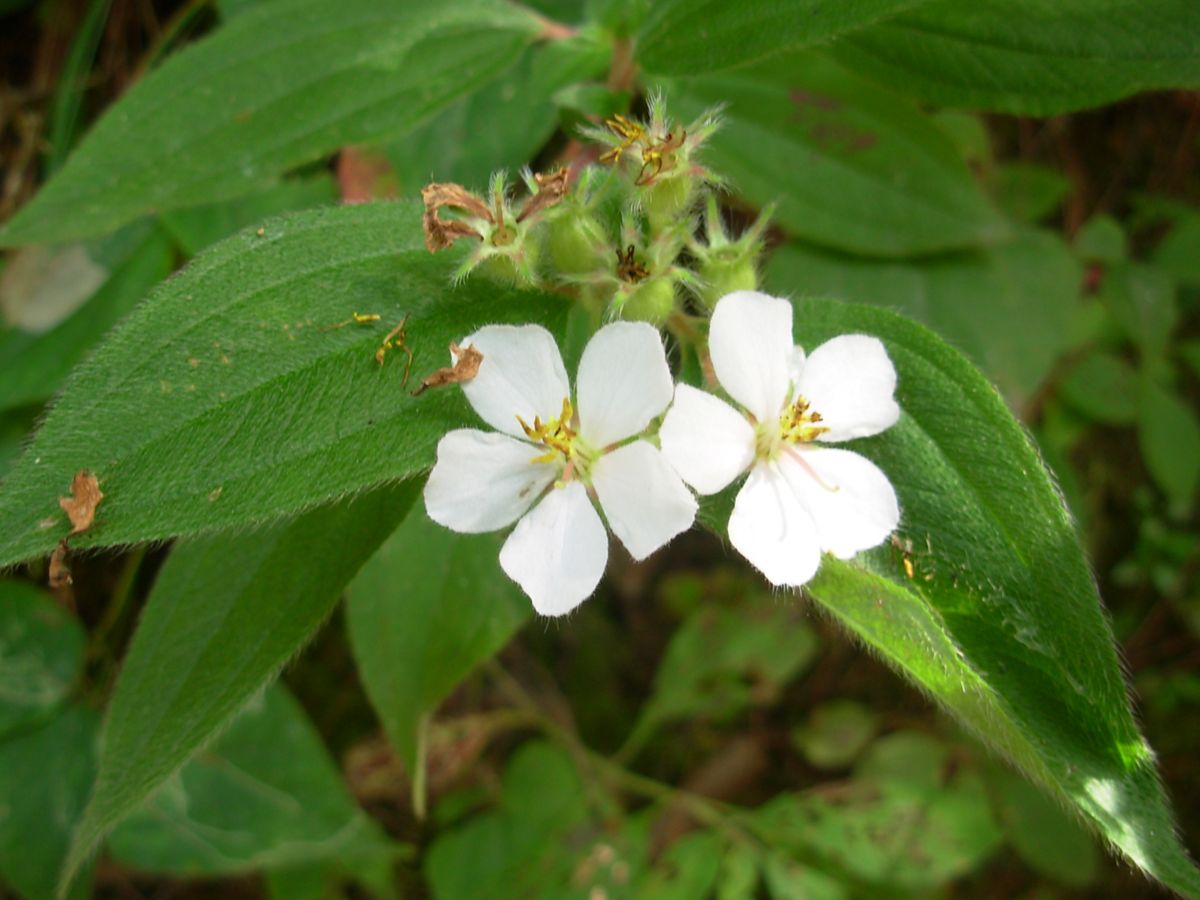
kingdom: Plantae
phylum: Tracheophyta
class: Magnoliopsida
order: Myrtales
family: Melastomataceae
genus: Chaetogastra
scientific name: Chaetogastra longifolia
